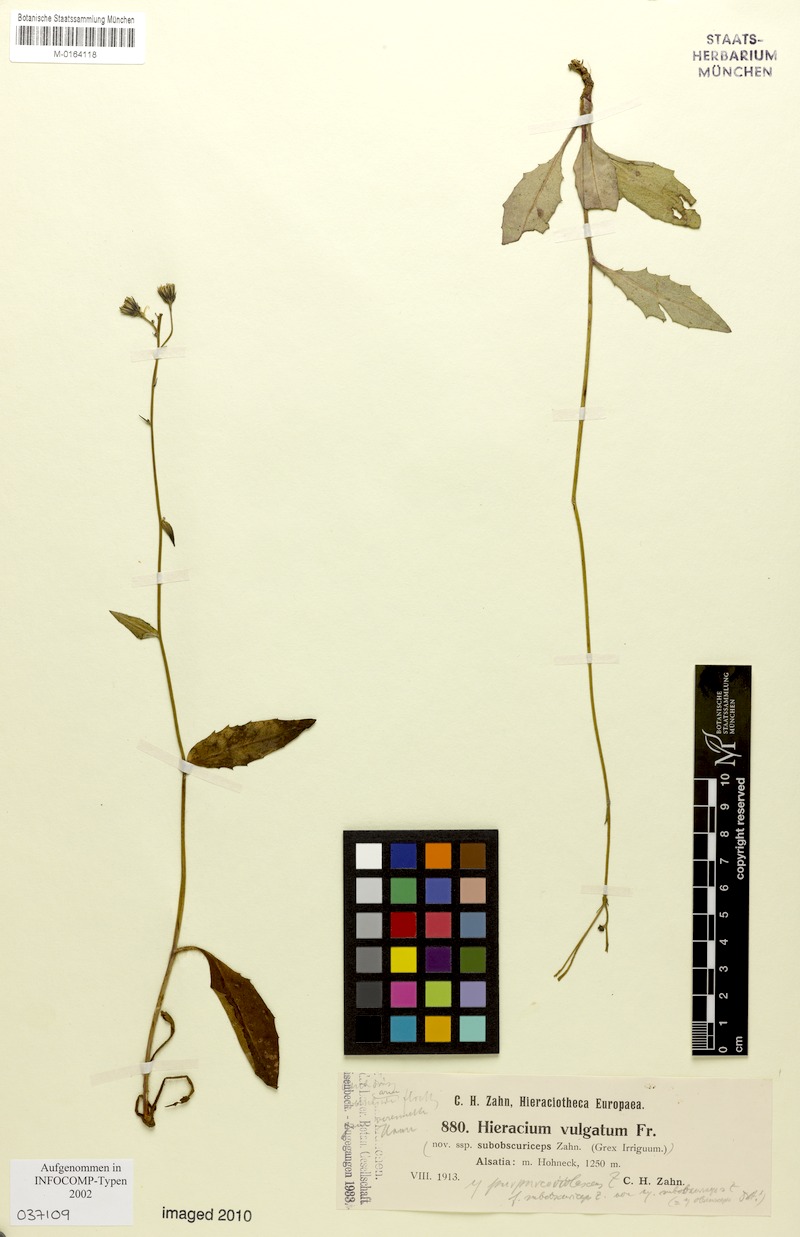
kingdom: Plantae
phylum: Tracheophyta
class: Magnoliopsida
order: Asterales
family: Asteraceae
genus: Hieracium
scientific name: Hieracium lachenalii
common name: Common hawkweed
